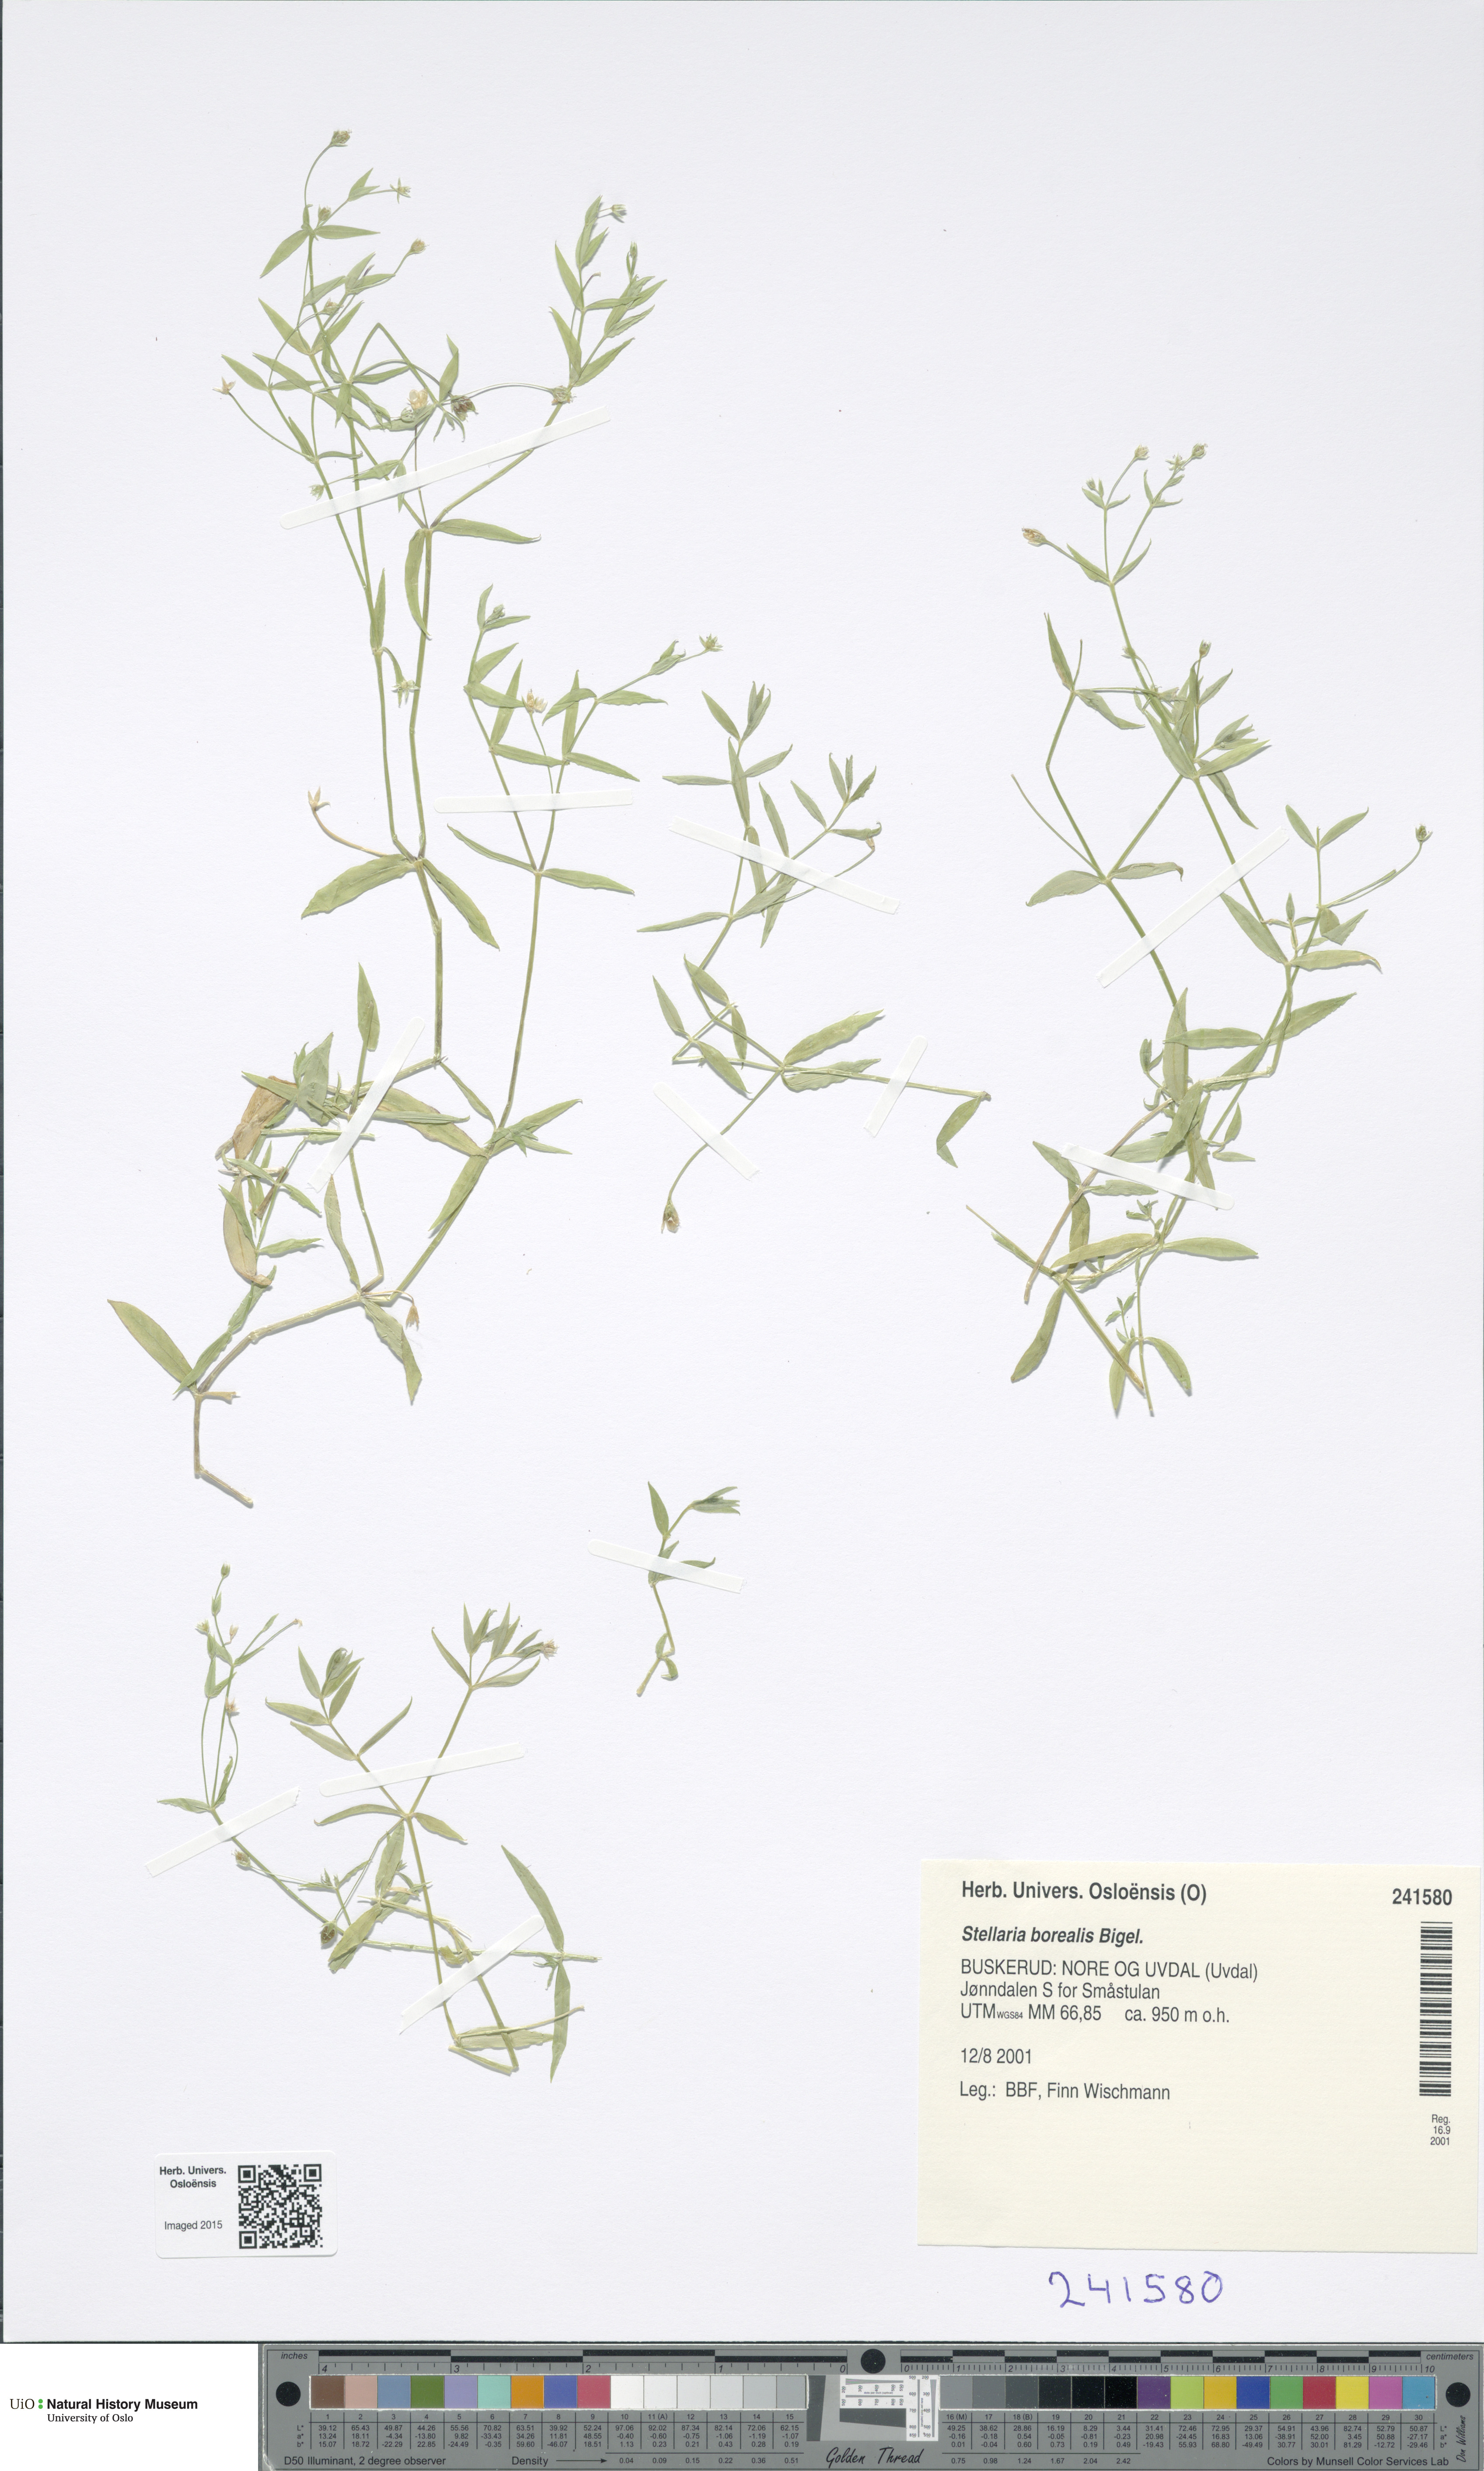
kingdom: Plantae
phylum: Tracheophyta
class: Magnoliopsida
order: Caryophyllales
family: Caryophyllaceae
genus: Stellaria
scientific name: Stellaria borealis
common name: Boreal starwort
